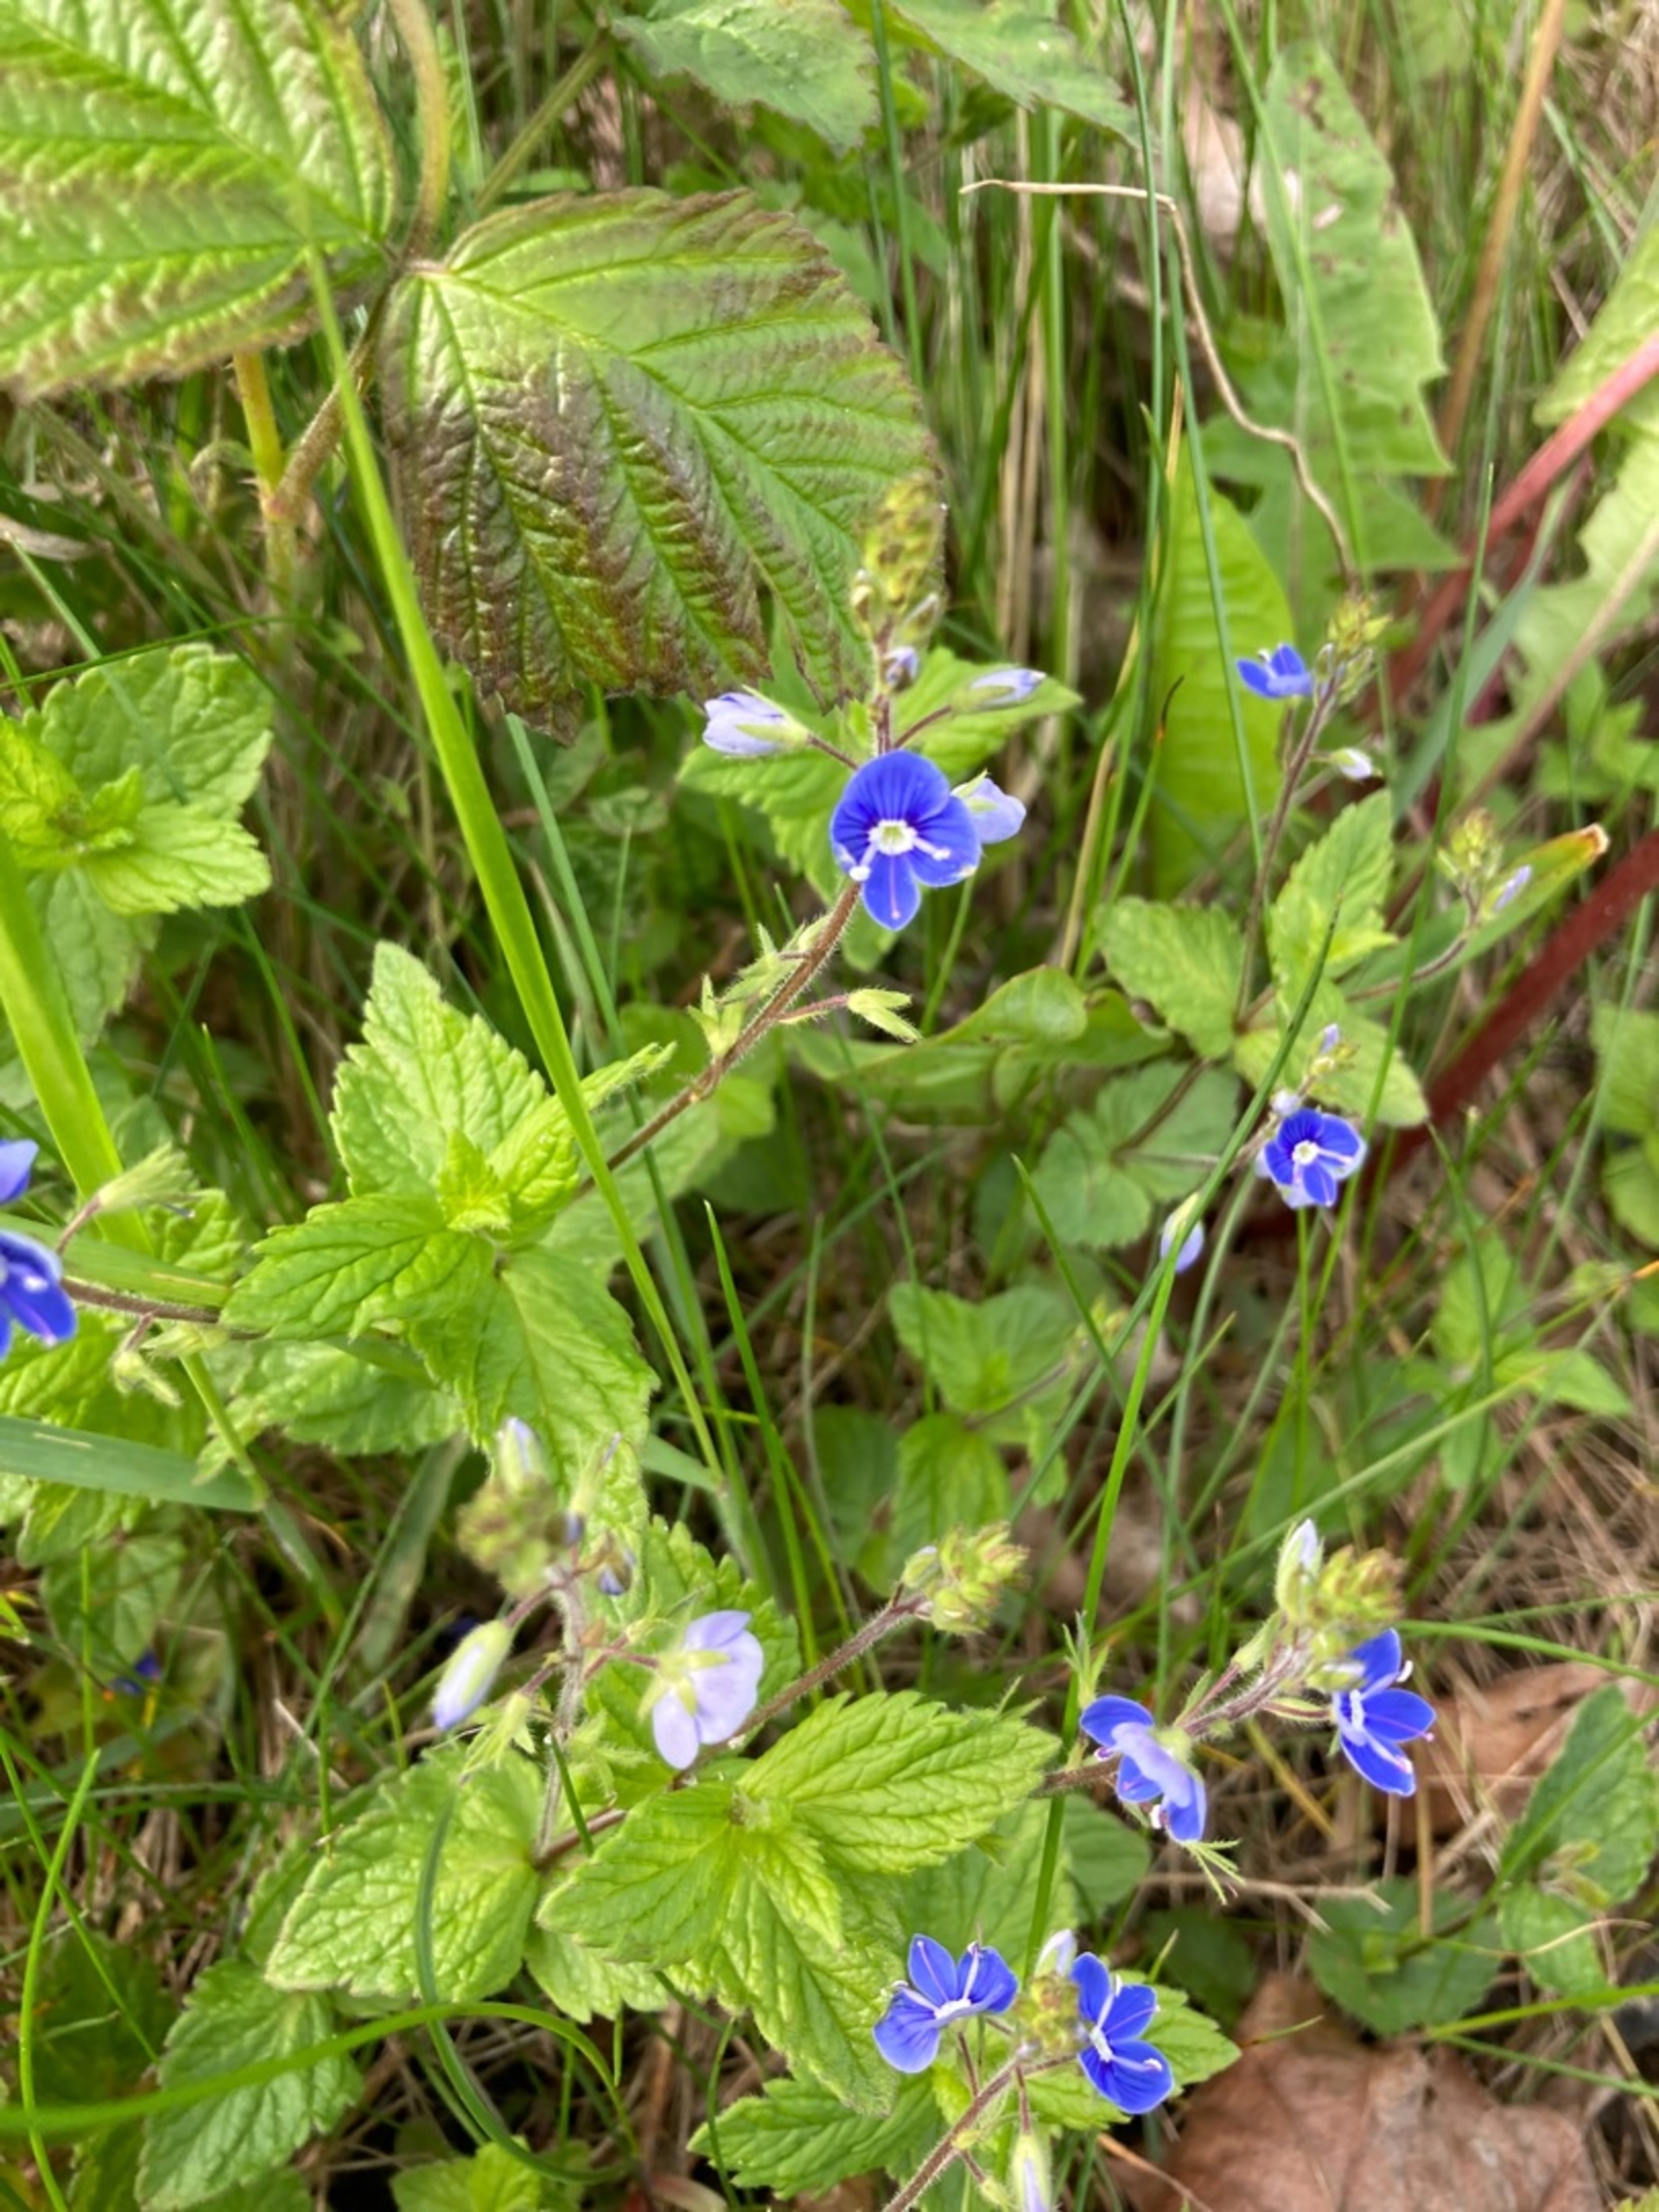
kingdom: Plantae
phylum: Tracheophyta
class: Magnoliopsida
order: Lamiales
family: Plantaginaceae
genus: Veronica
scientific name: Veronica chamaedrys
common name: Tveskægget ærenpris
